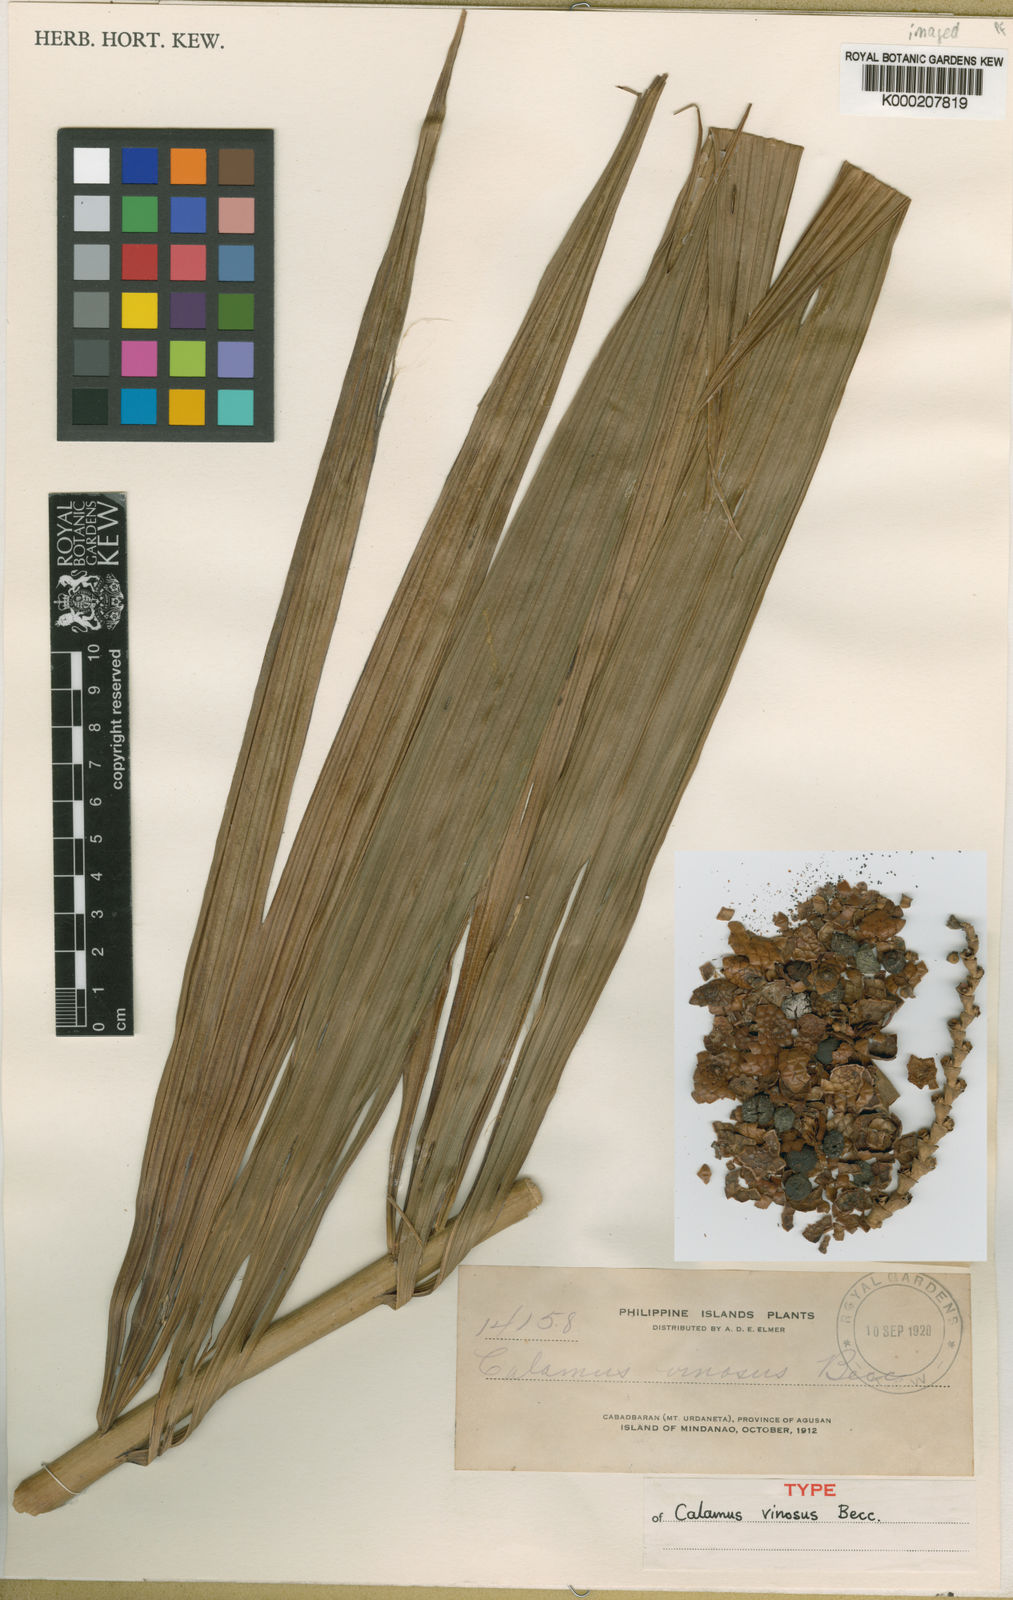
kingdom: Plantae
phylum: Tracheophyta
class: Liliopsida
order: Arecales
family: Arecaceae
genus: Calamus
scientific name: Calamus vinosus
